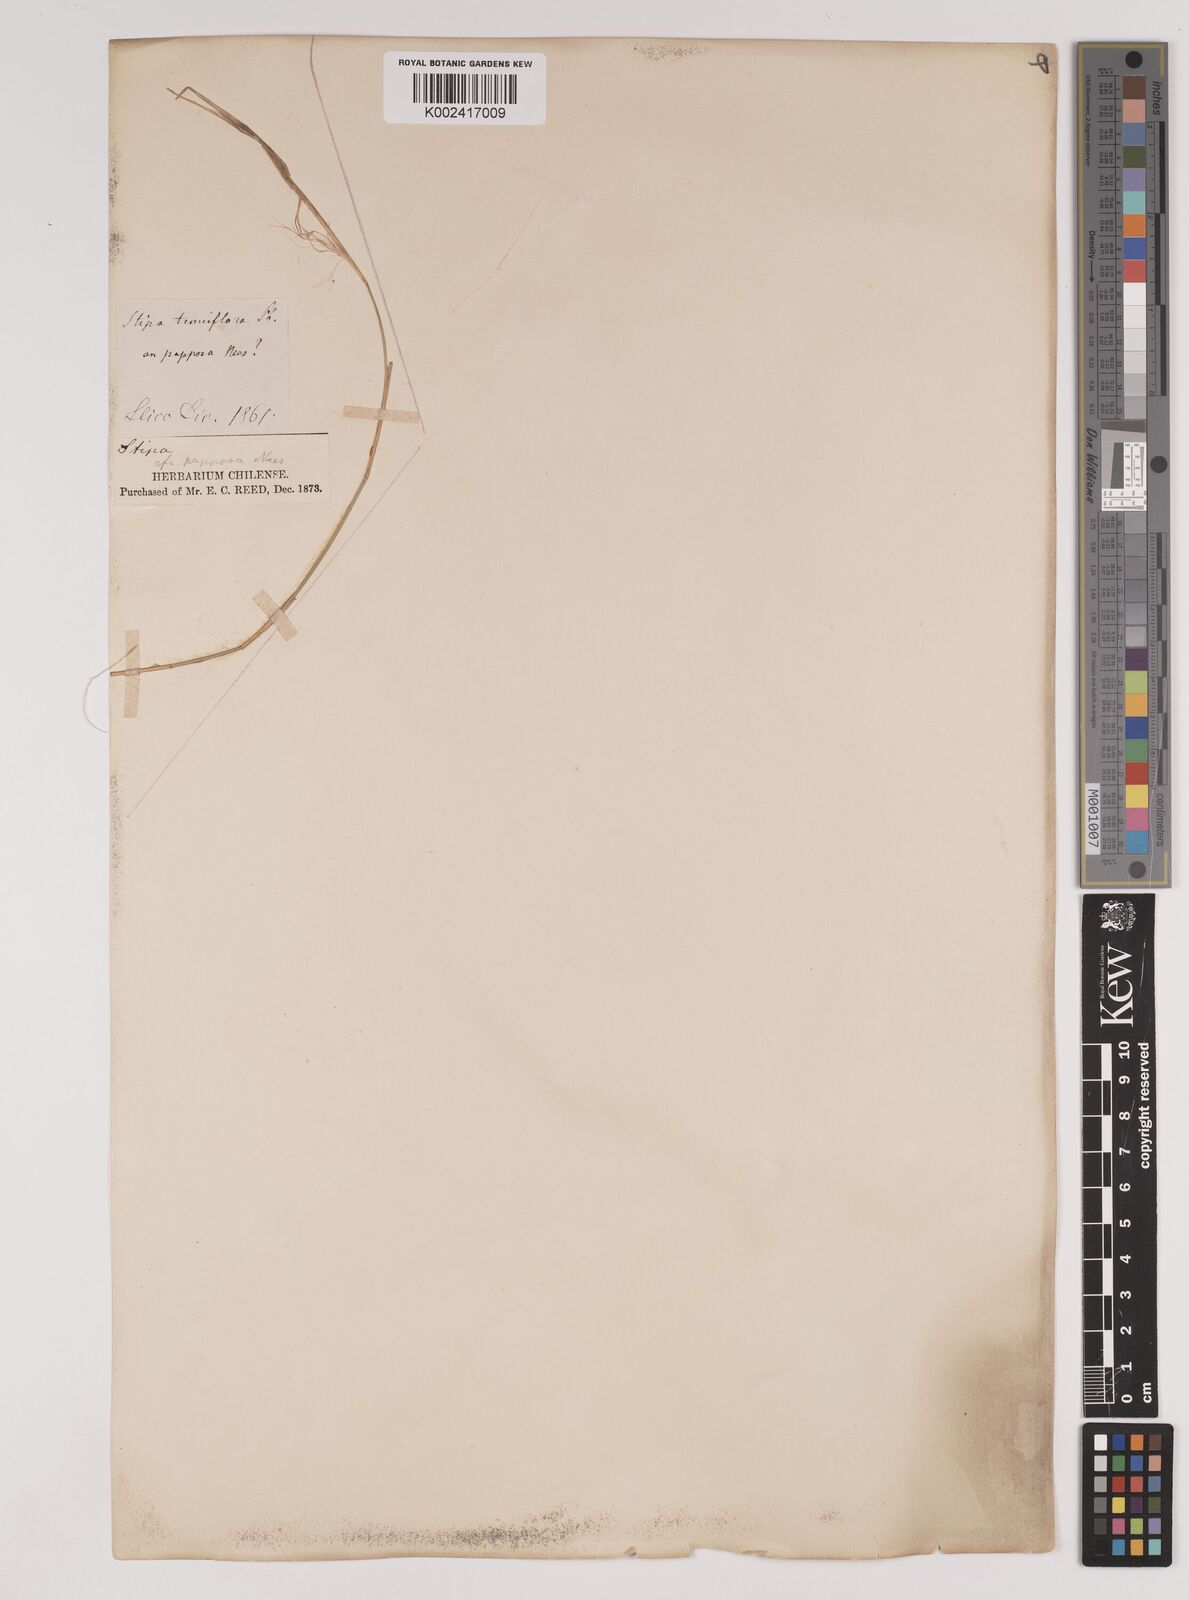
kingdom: Plantae
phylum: Tracheophyta
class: Liliopsida
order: Poales
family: Poaceae
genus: Stipa
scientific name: Stipa plumosa
